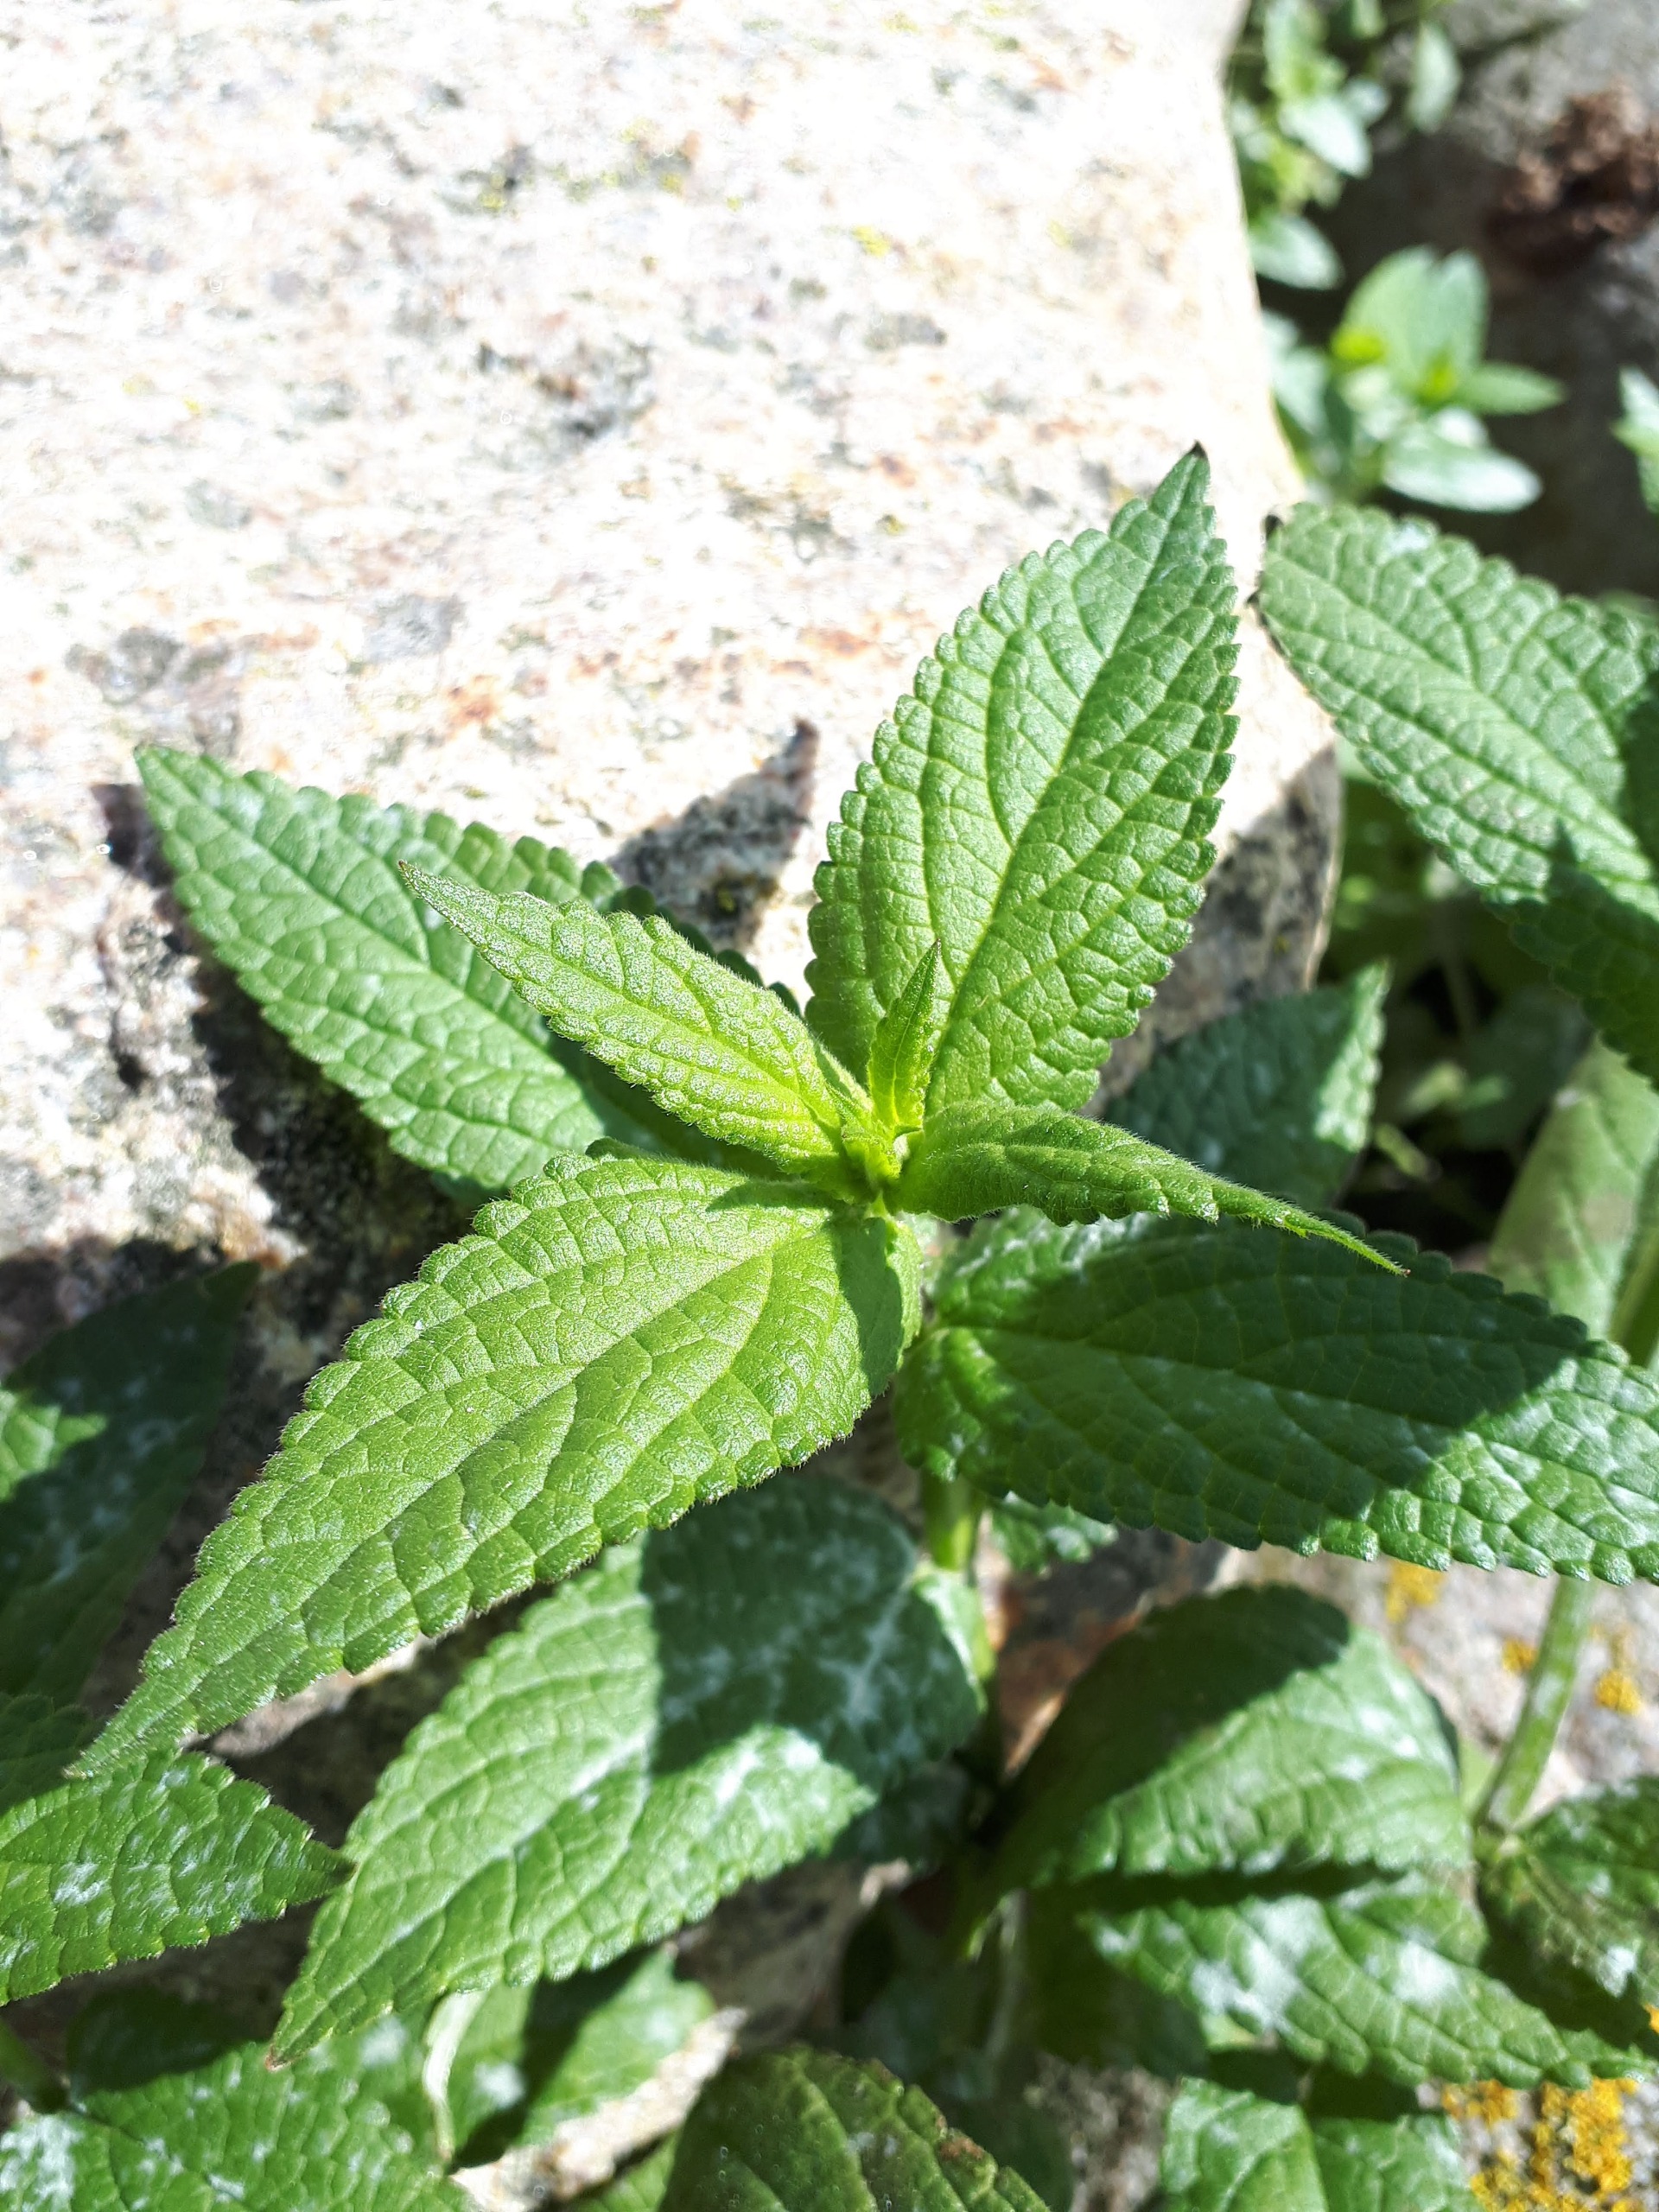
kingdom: Plantae
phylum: Tracheophyta
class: Magnoliopsida
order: Lamiales
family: Lamiaceae
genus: Stachys
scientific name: Stachys palustris
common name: Kær-galtetand
